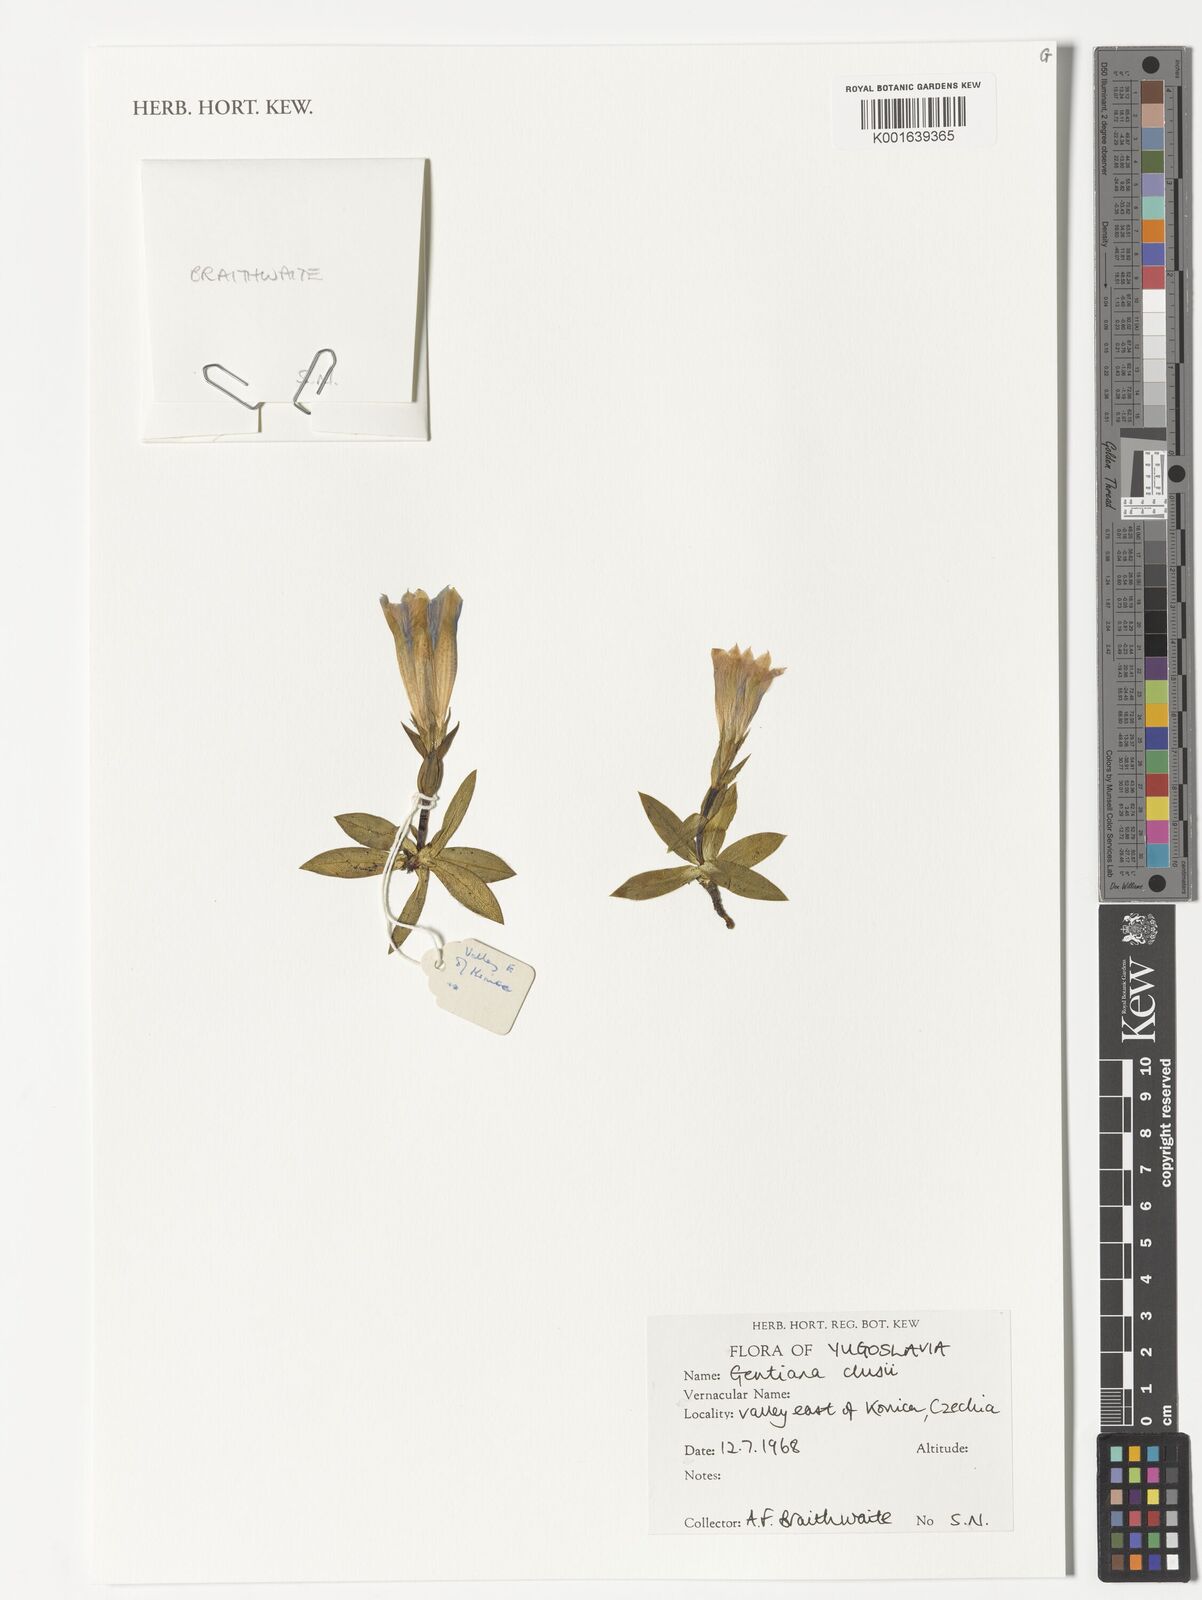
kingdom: Plantae
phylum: Tracheophyta
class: Magnoliopsida
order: Gentianales
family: Gentianaceae
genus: Gentiana
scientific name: Gentiana clusii
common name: Trumpet gentian
